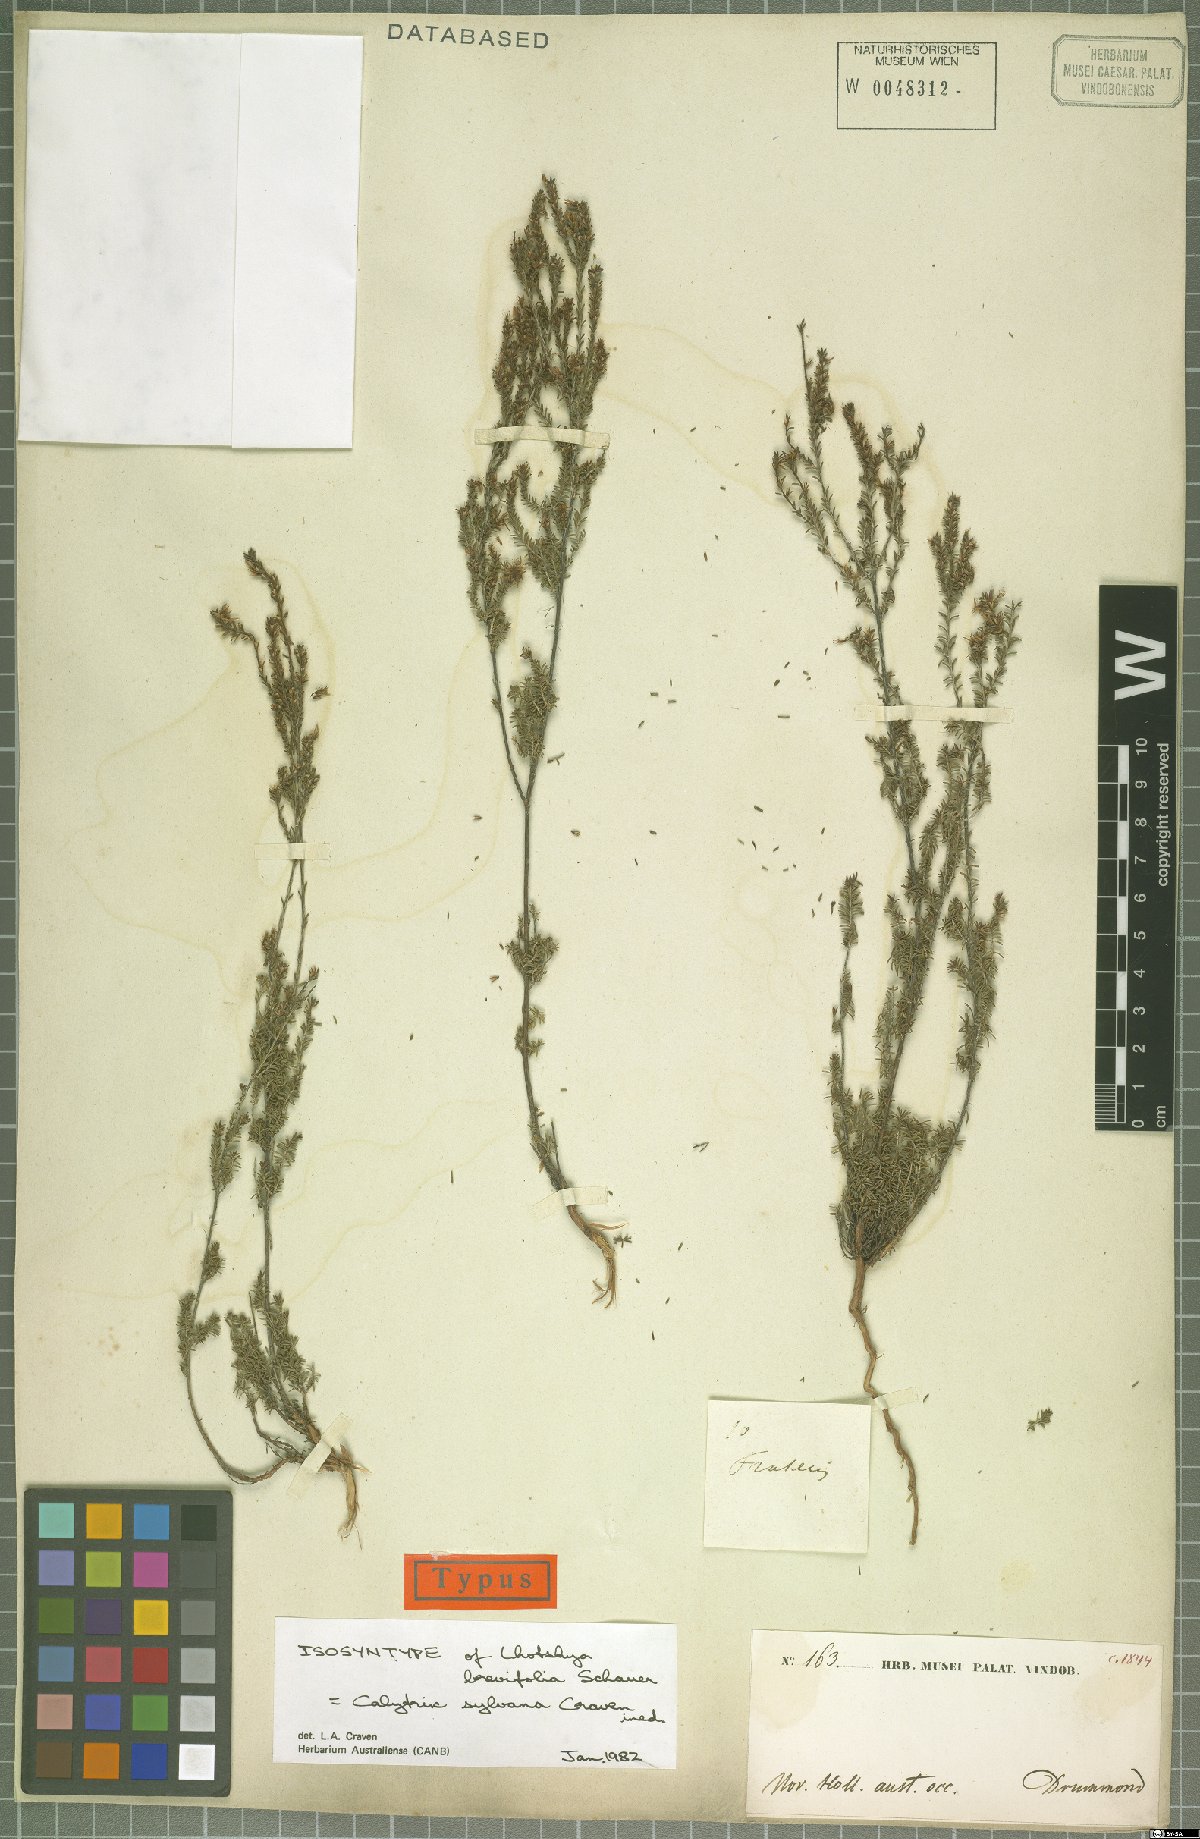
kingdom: Plantae
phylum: Tracheophyta
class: Magnoliopsida
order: Myrtales
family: Myrtaceae
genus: Calytrix
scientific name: Calytrix sylvana
